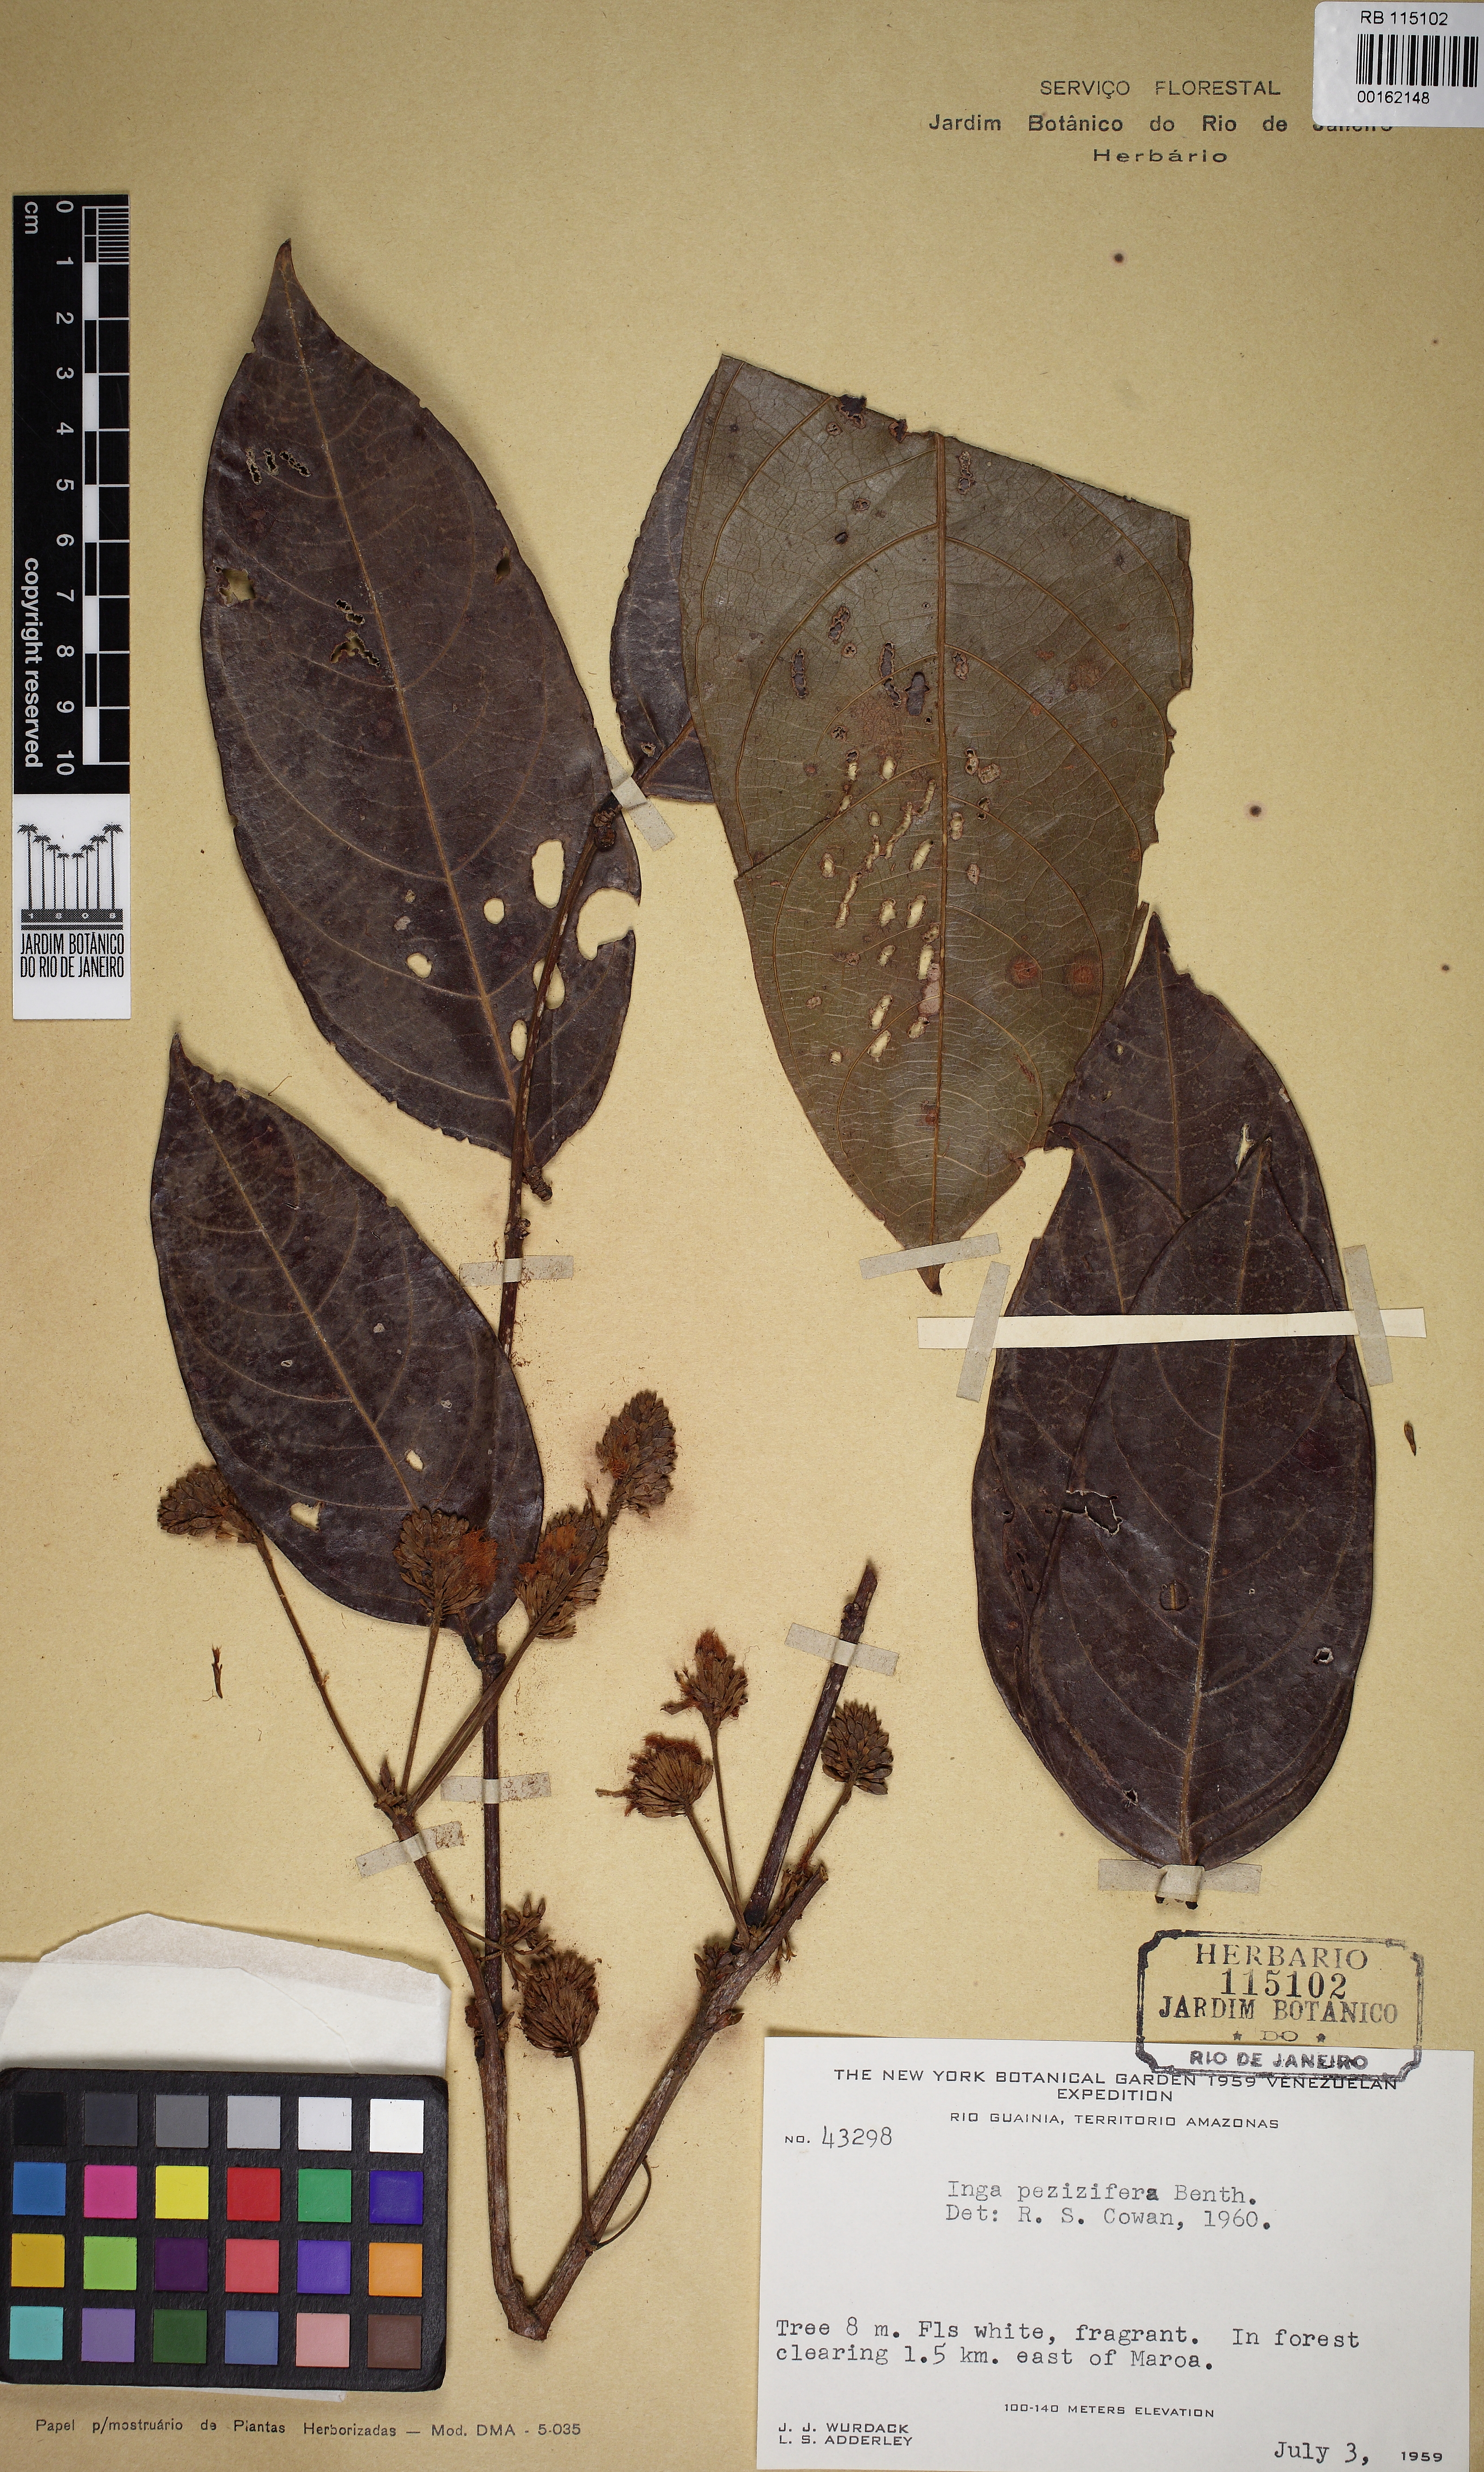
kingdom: Plantae
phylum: Tracheophyta
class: Magnoliopsida
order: Fabales
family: Fabaceae
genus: Inga
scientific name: Inga pezizifera
